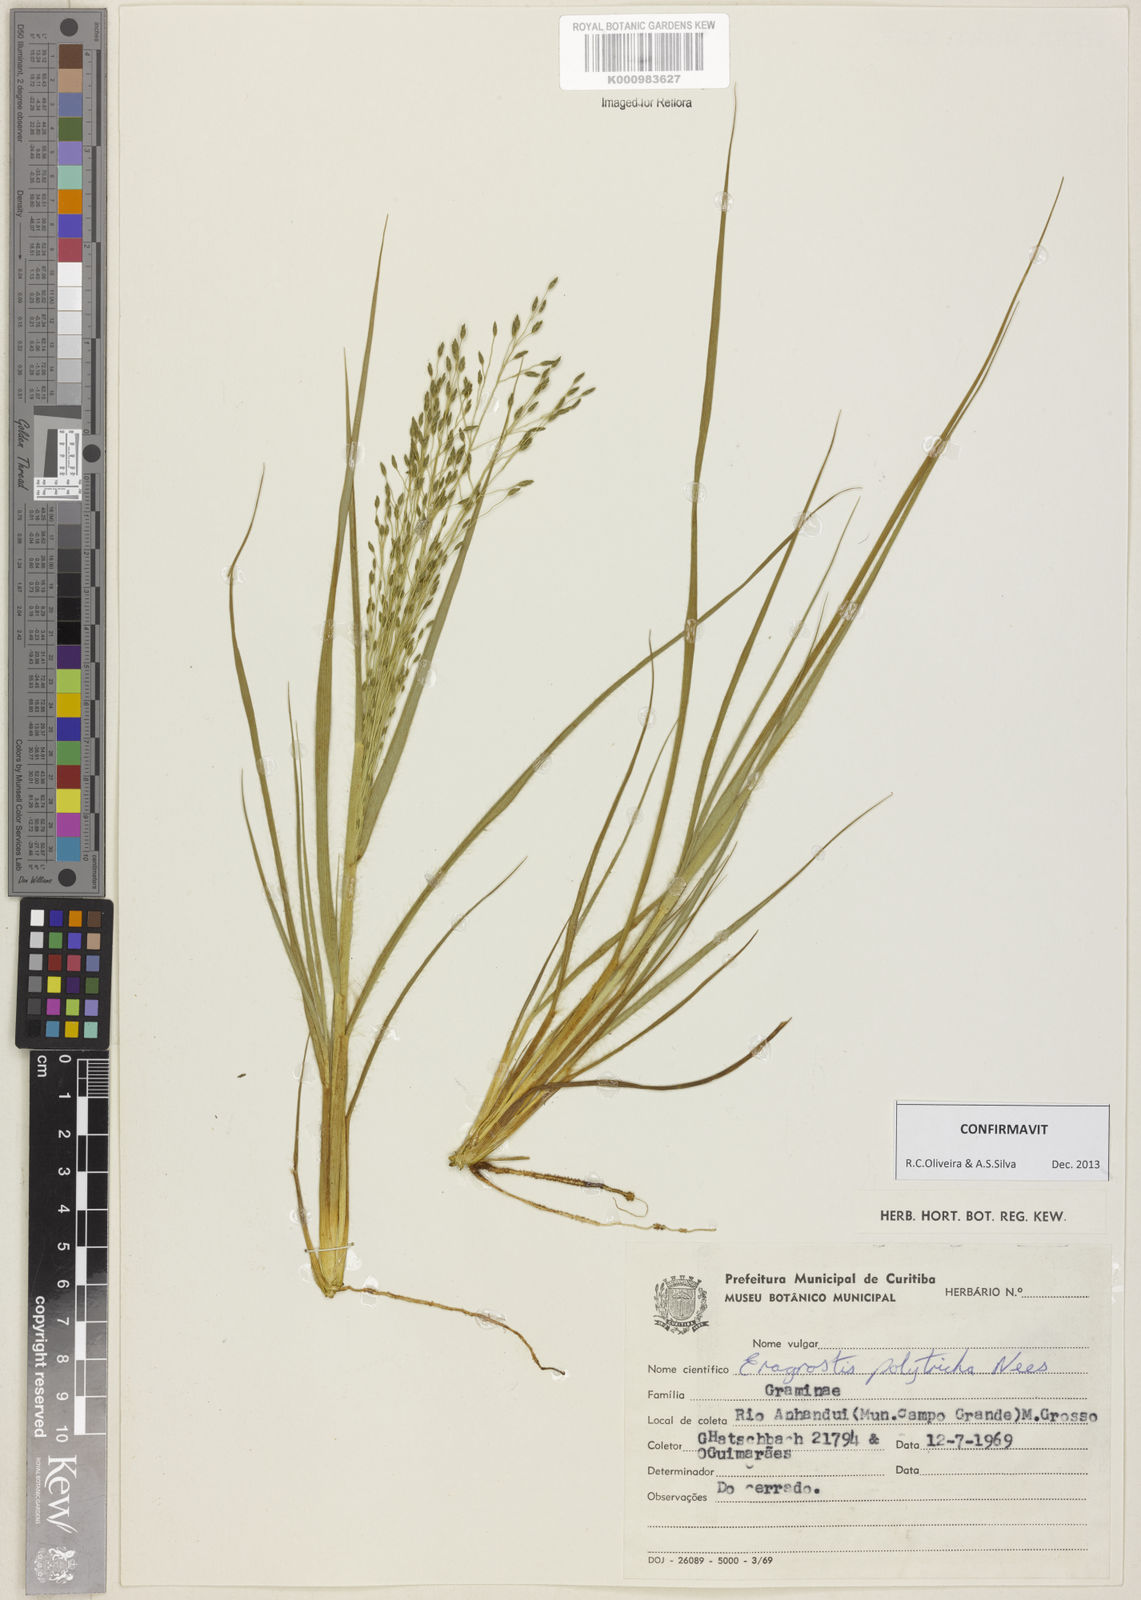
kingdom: Plantae
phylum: Tracheophyta
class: Liliopsida
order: Poales
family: Poaceae
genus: Eragrostis
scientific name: Eragrostis polytricha
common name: Hairy-sheath love grass
